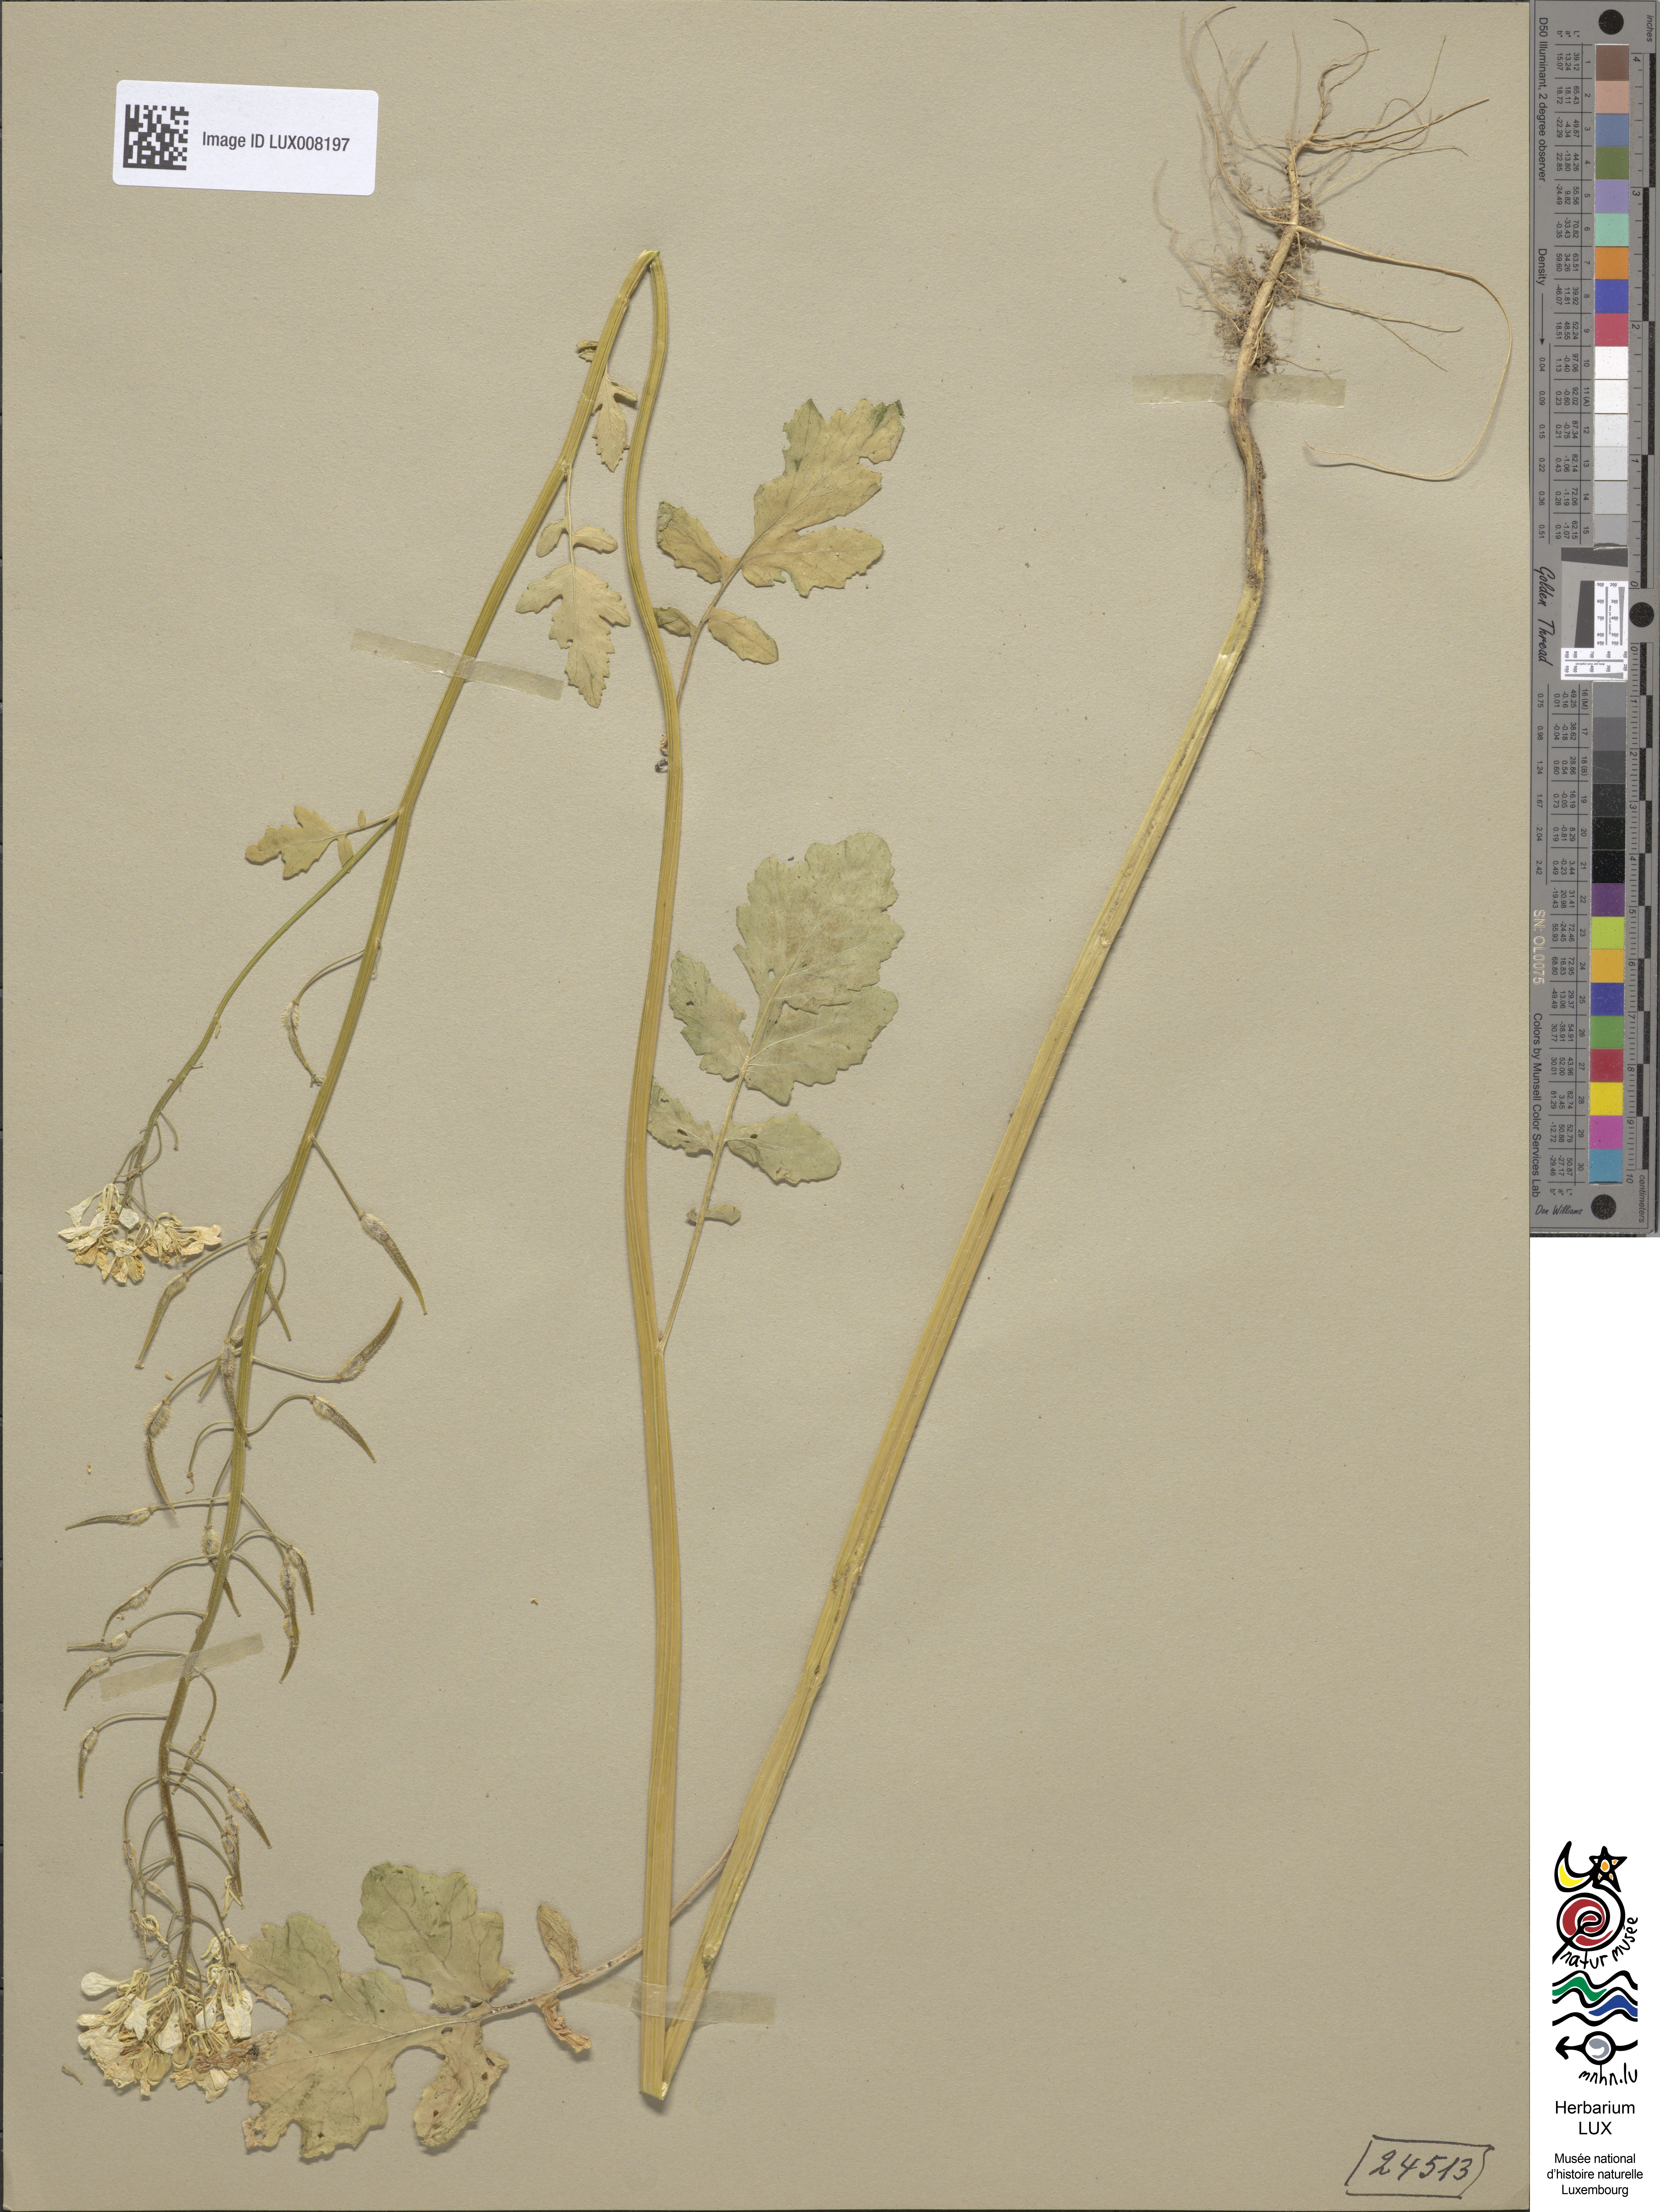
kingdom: Plantae
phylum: Tracheophyta
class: Magnoliopsida
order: Brassicales
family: Brassicaceae
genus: Sinapis
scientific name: Sinapis alba
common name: White mustard
